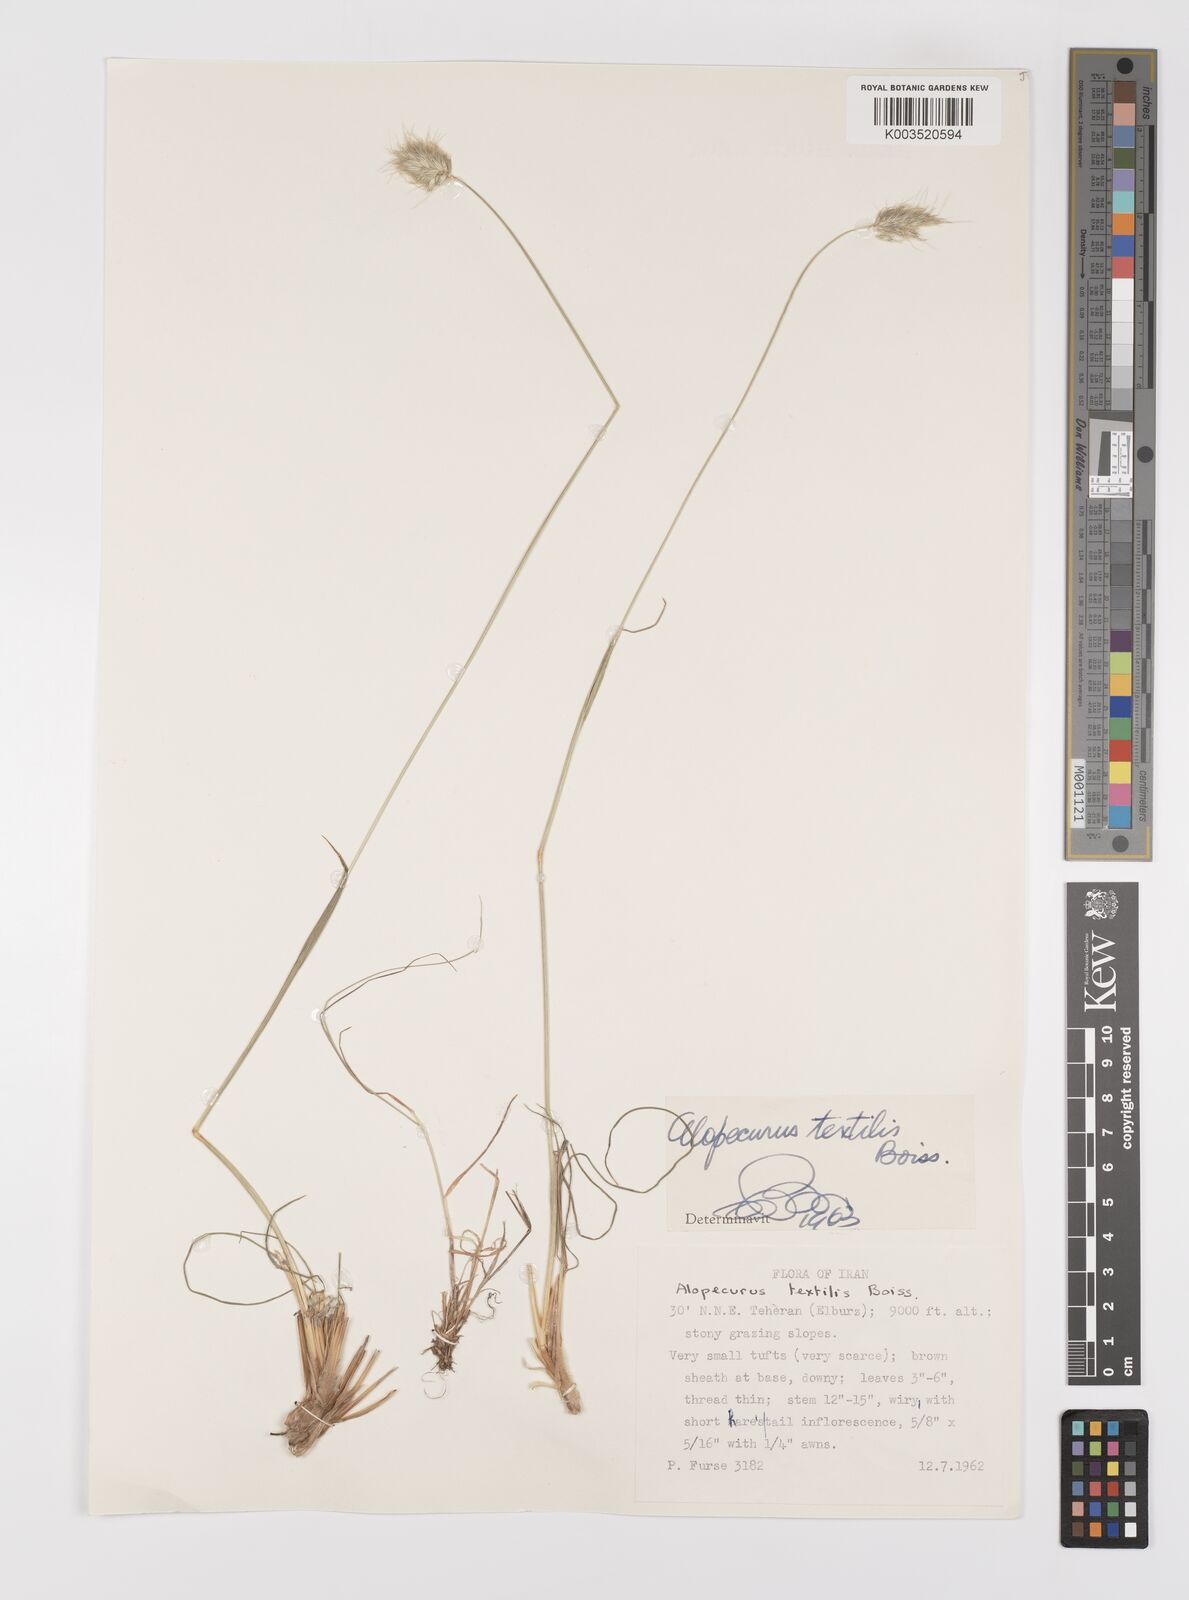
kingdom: Plantae
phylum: Tracheophyta
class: Liliopsida
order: Poales
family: Poaceae
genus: Alopecurus
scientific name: Alopecurus textilis
